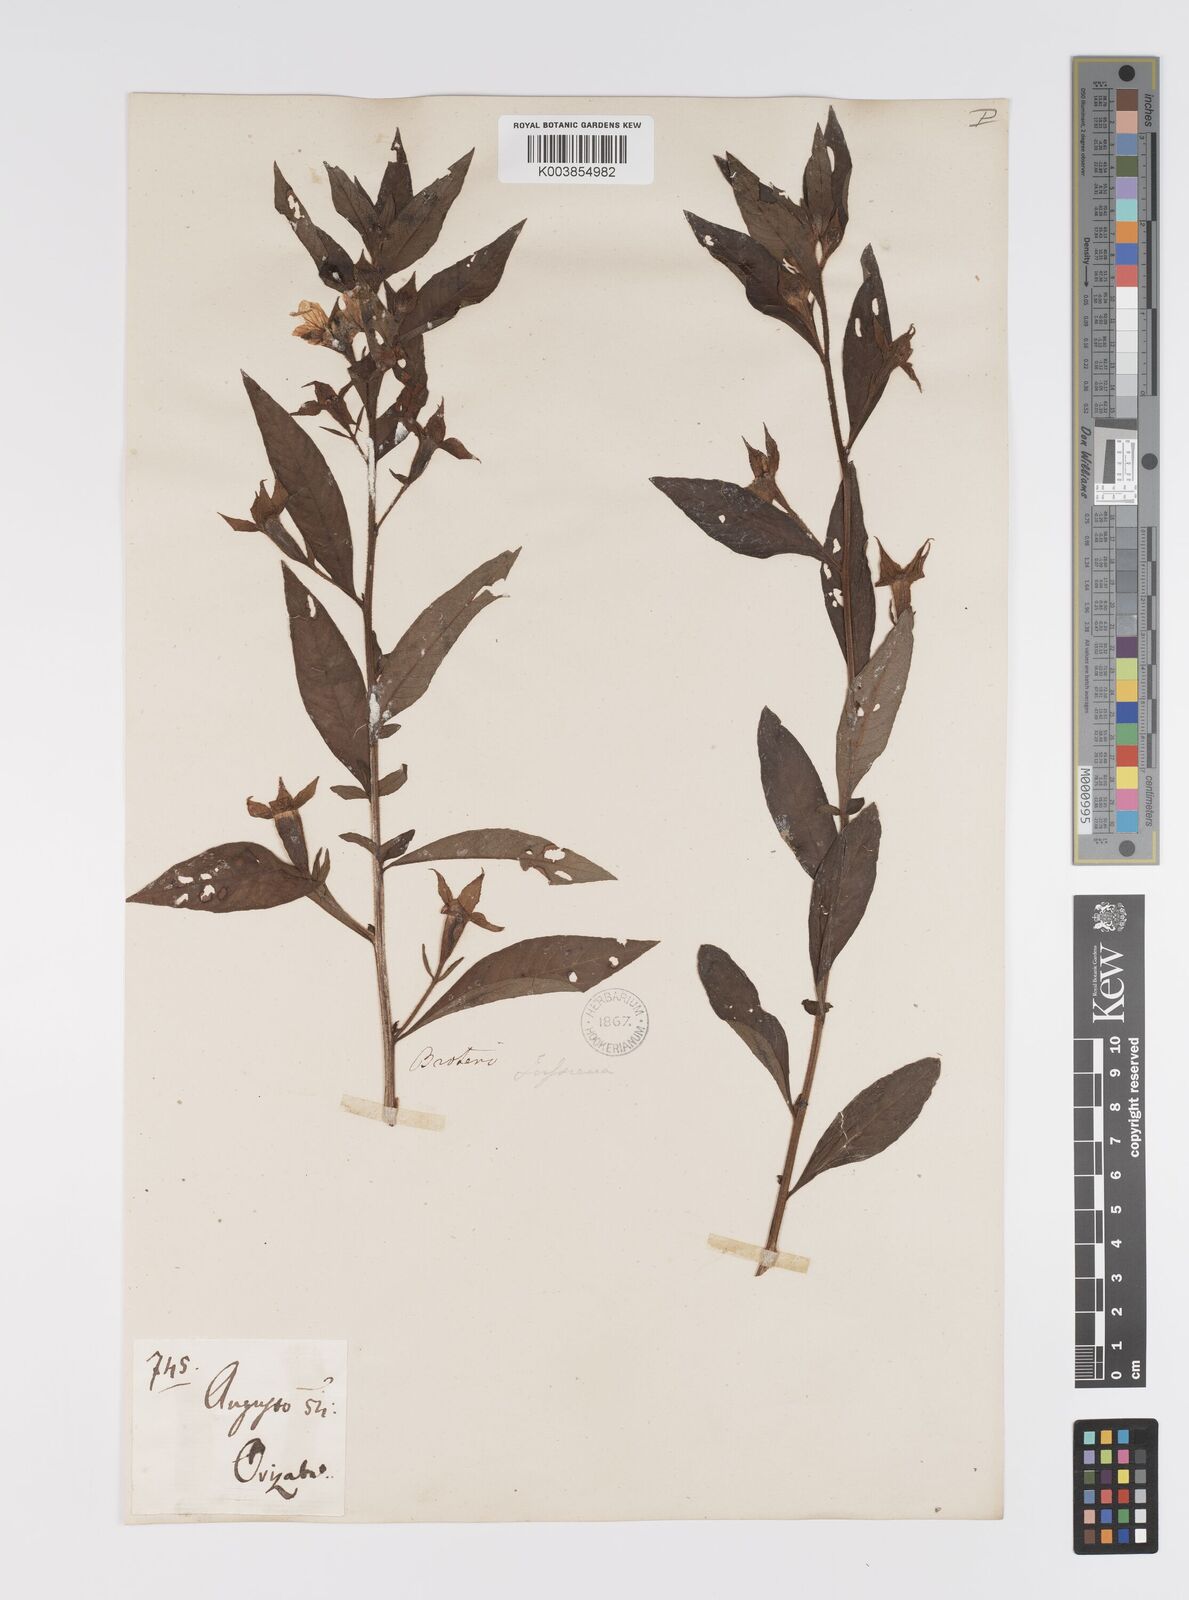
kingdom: Plantae
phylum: Tracheophyta
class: Magnoliopsida
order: Myrtales
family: Onagraceae
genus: Ludwigia
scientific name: Ludwigia peruviana
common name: Peruvian primrose-willow
